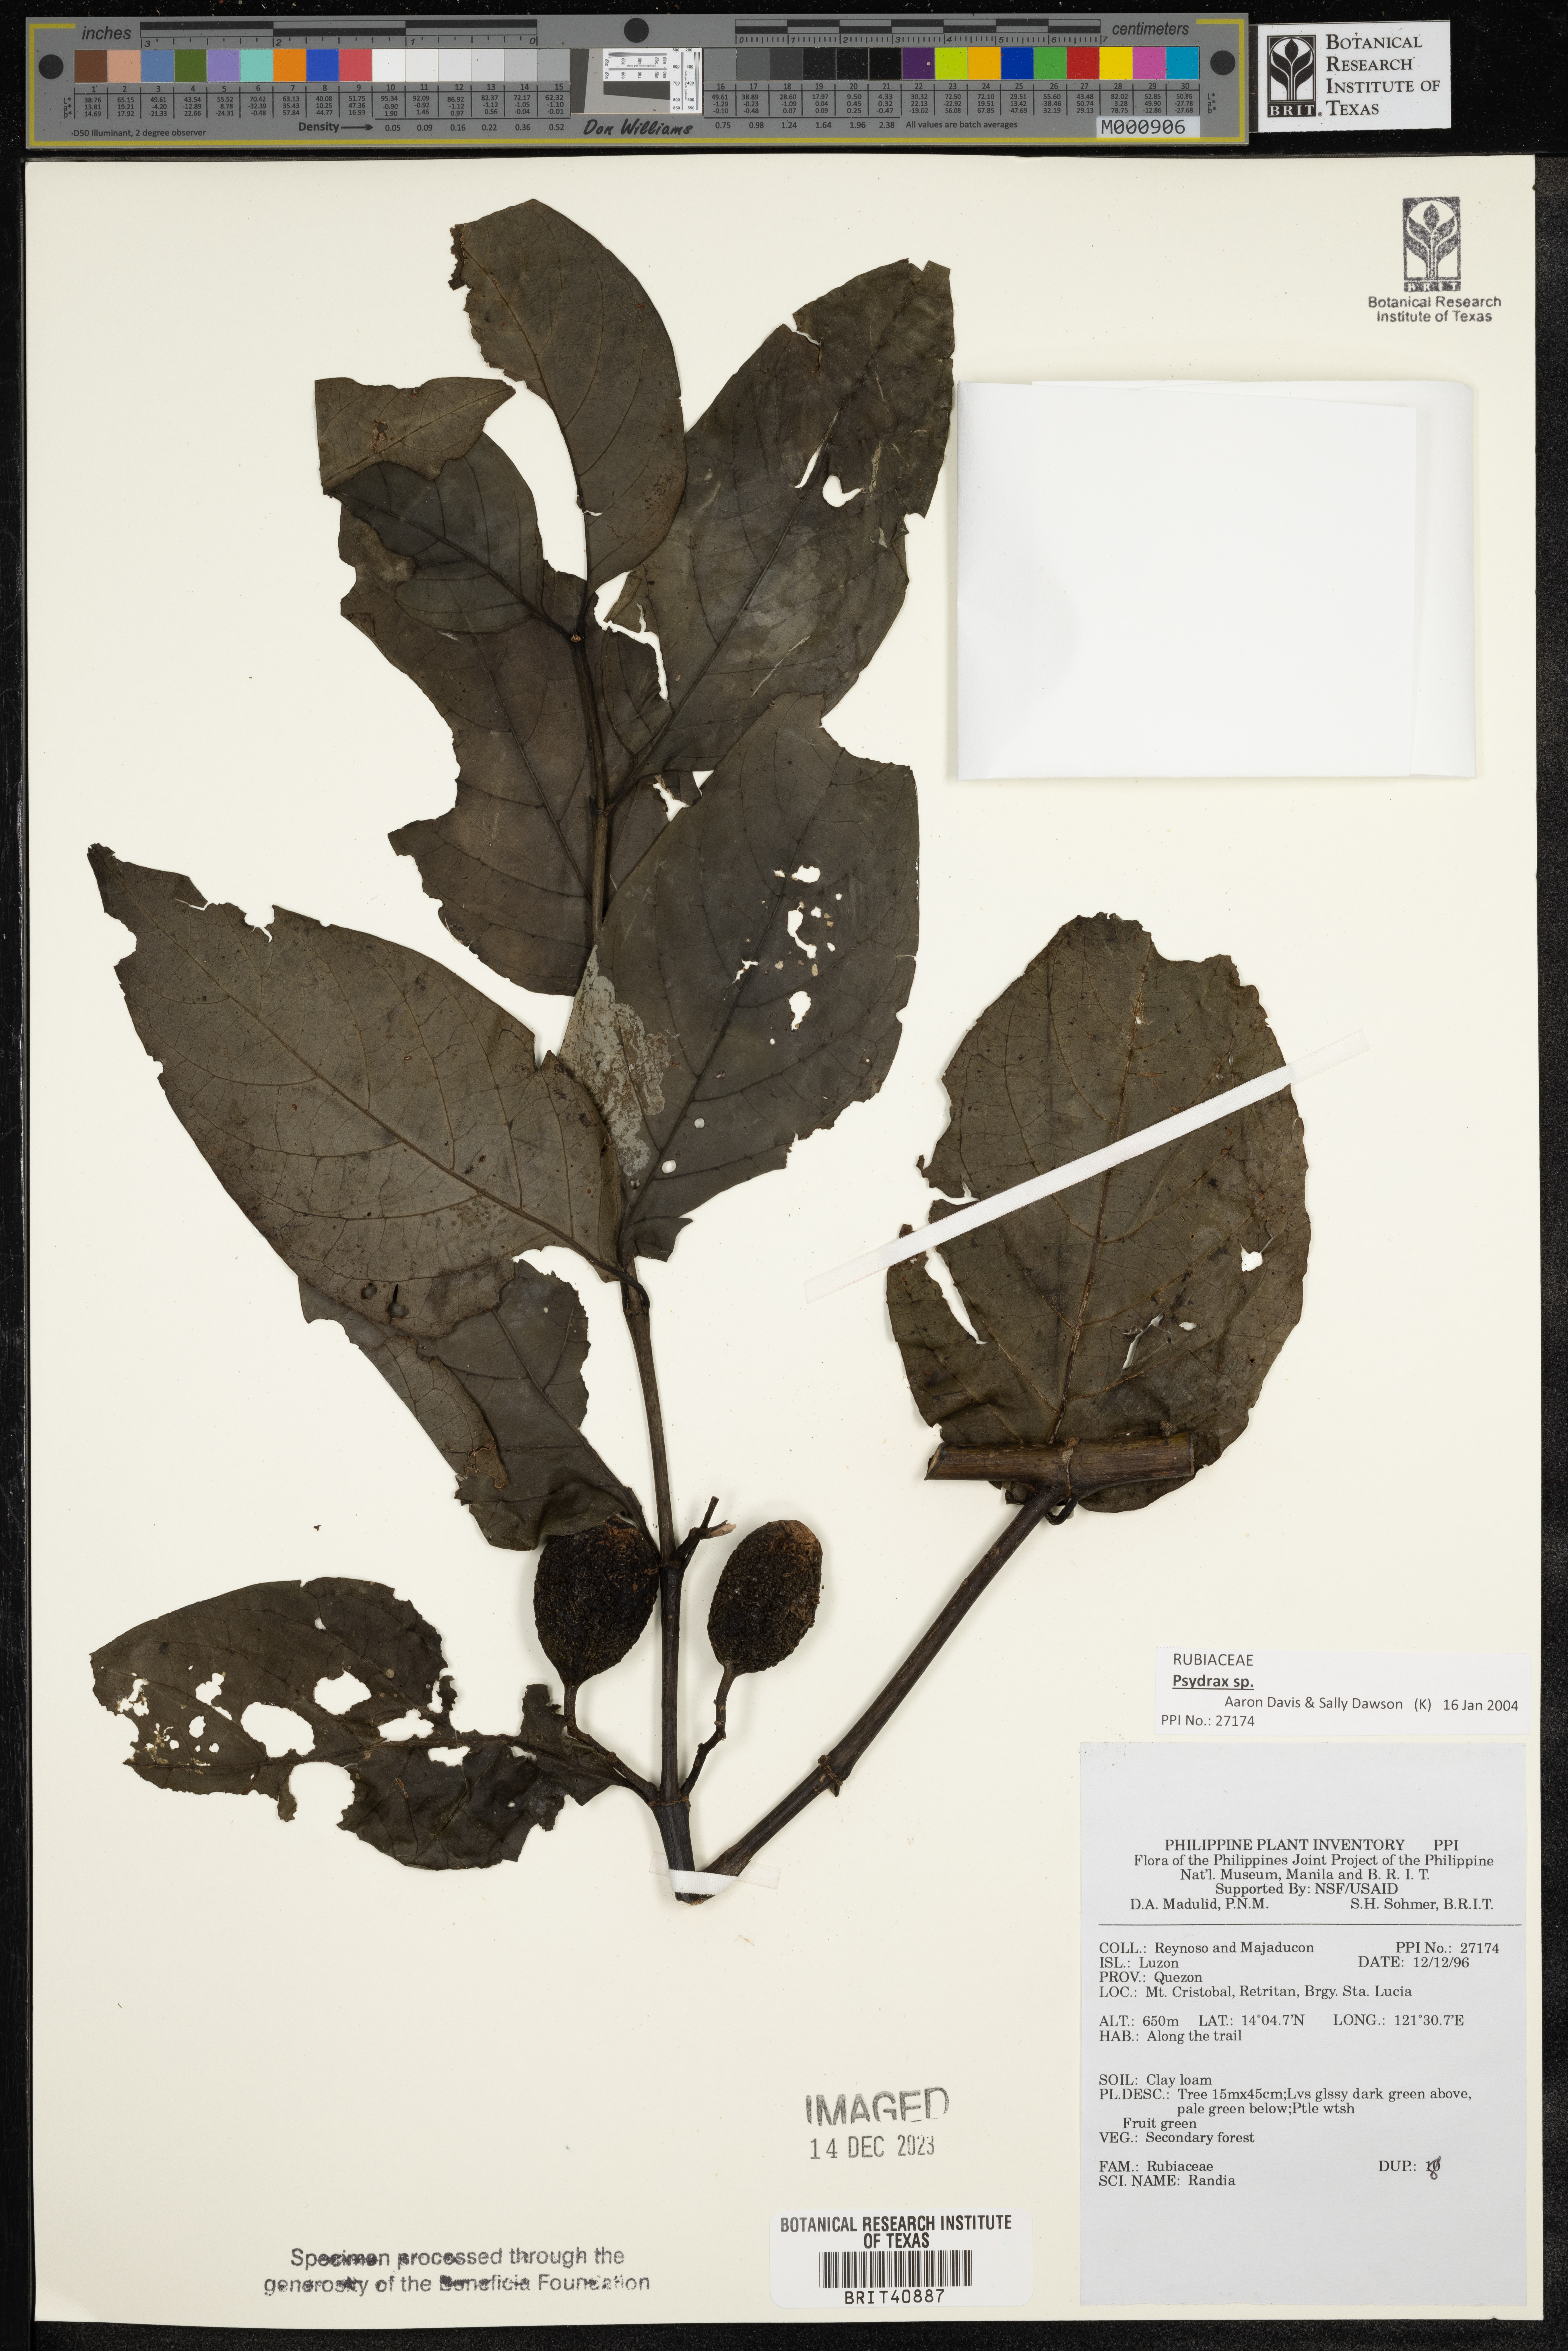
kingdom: Plantae
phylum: Tracheophyta
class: Magnoliopsida
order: Gentianales
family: Rubiaceae
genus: Randia
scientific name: Randia
